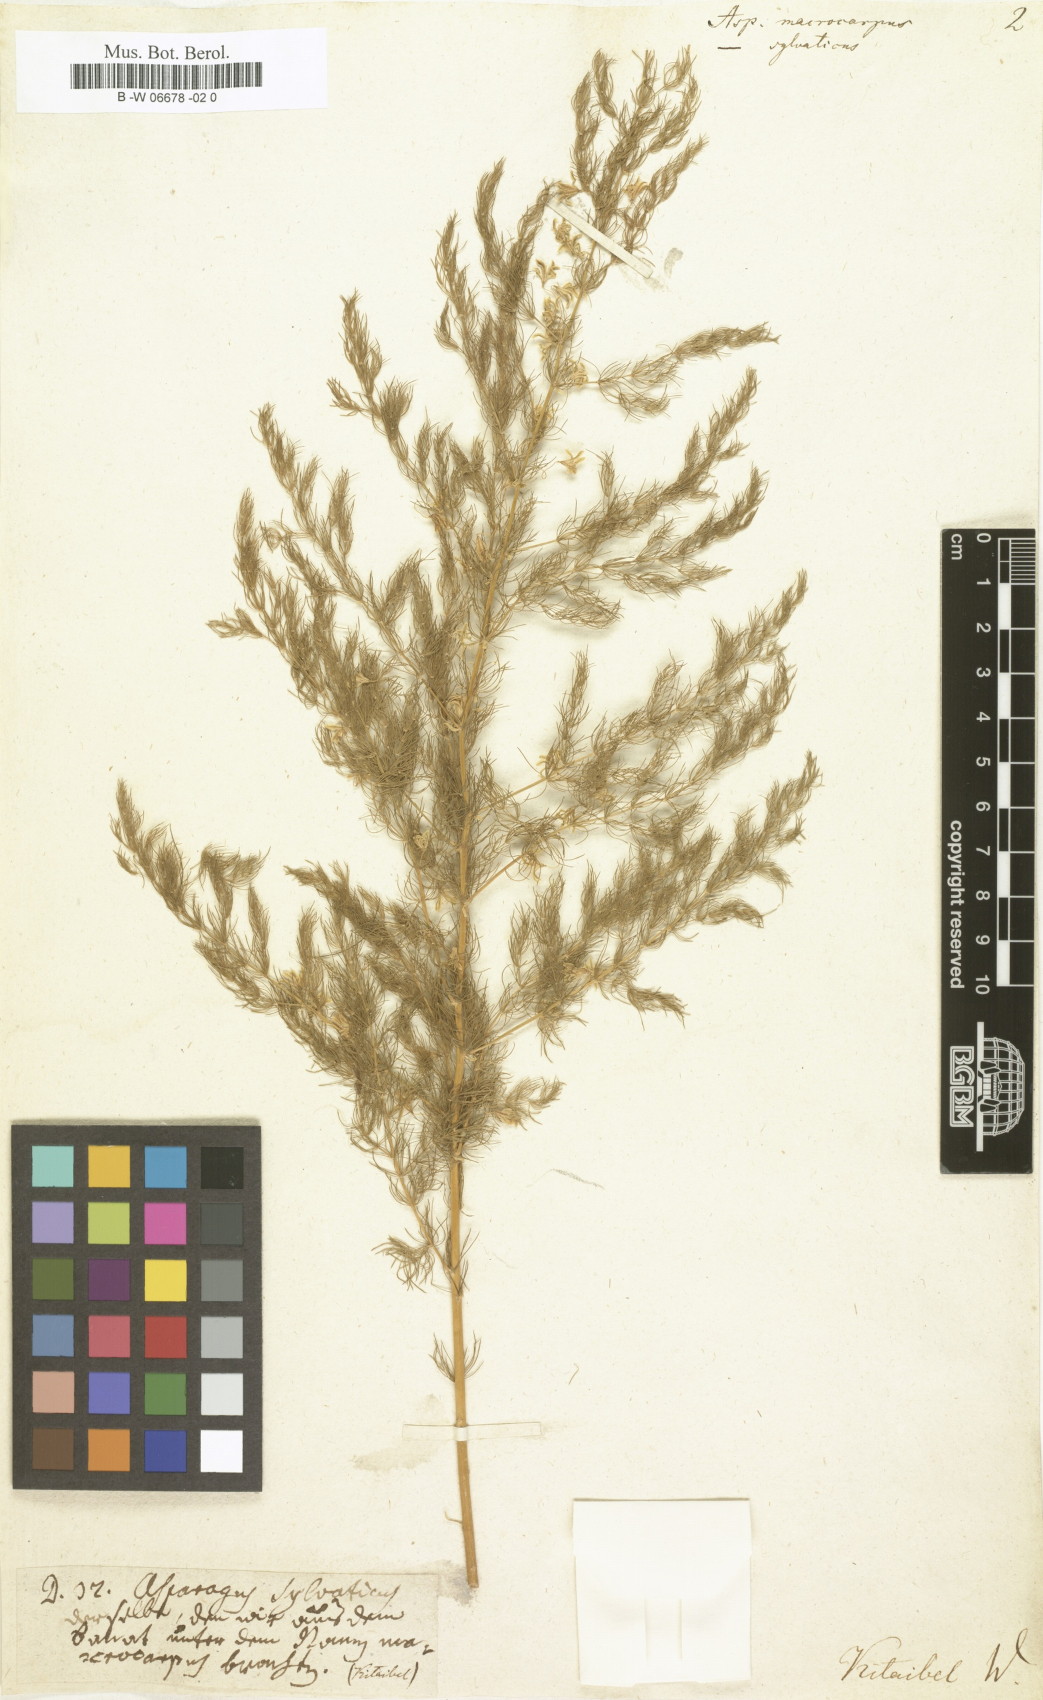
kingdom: Plantae
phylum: Tracheophyta
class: Liliopsida
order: Asparagales
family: Asparagaceae
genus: Asparagus
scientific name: Asparagus macrocarpus
